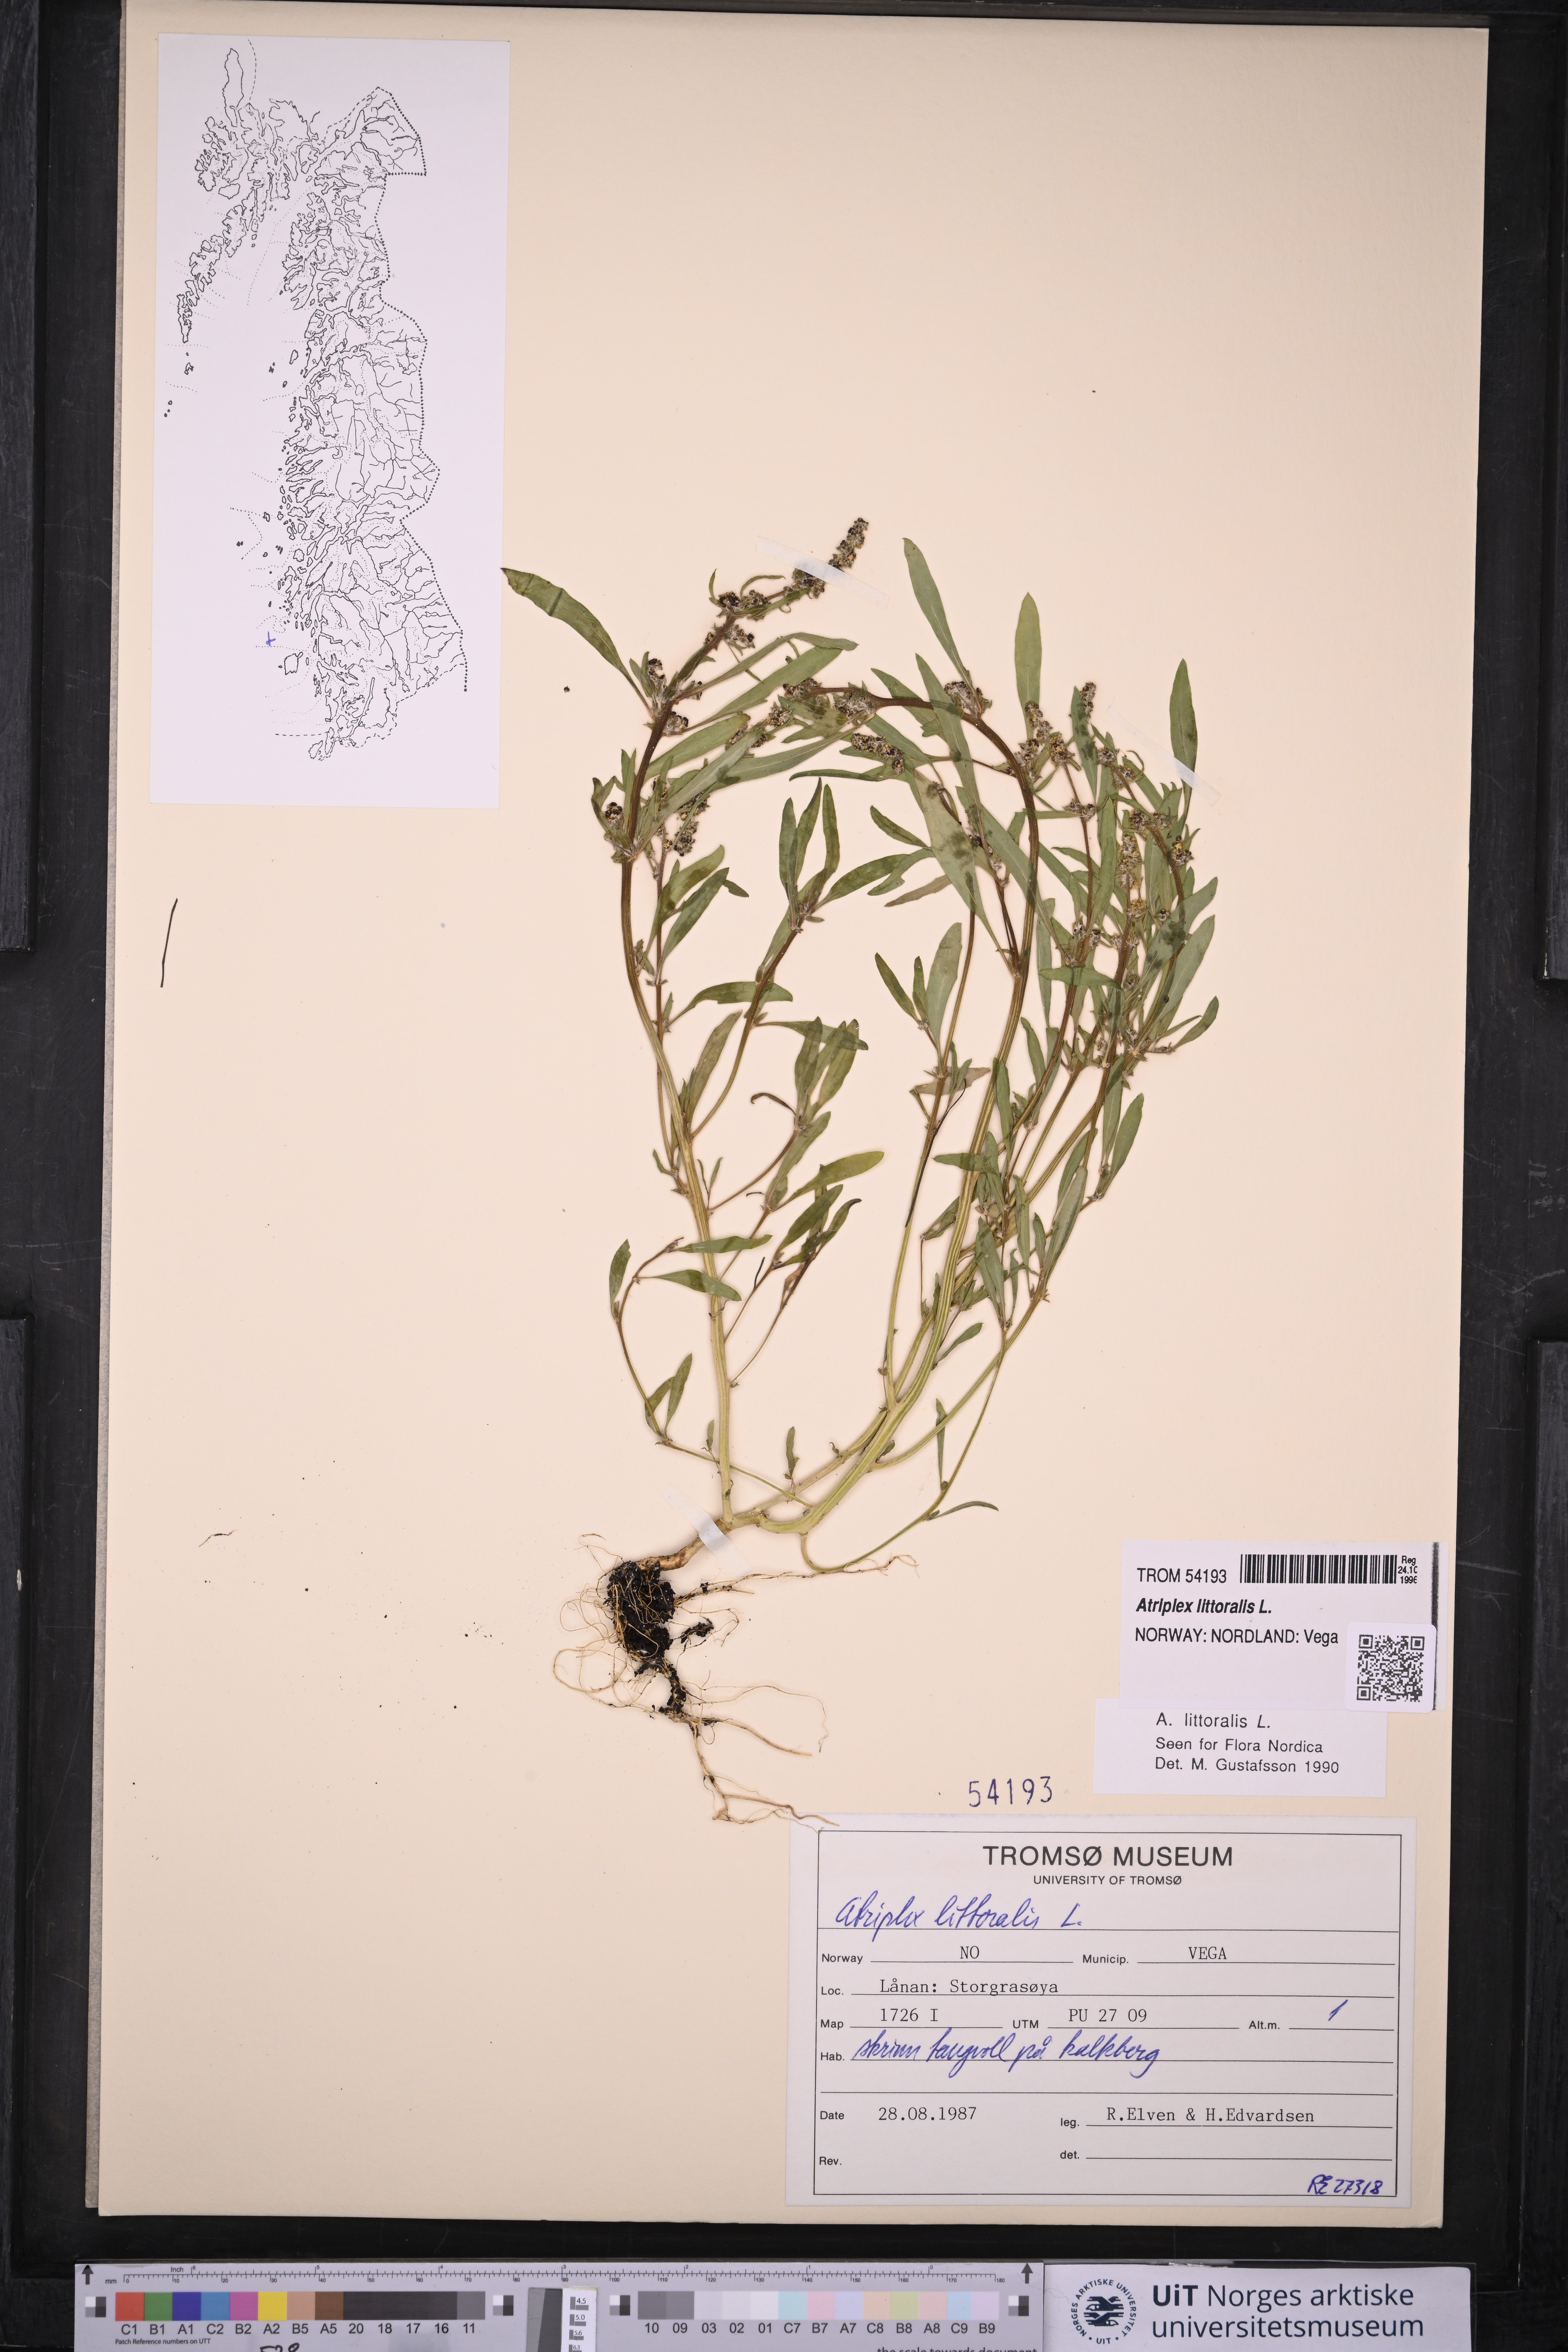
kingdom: Plantae
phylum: Tracheophyta
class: Magnoliopsida
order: Caryophyllales
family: Amaranthaceae
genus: Atriplex
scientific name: Atriplex littoralis
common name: Grass-leaved orache
